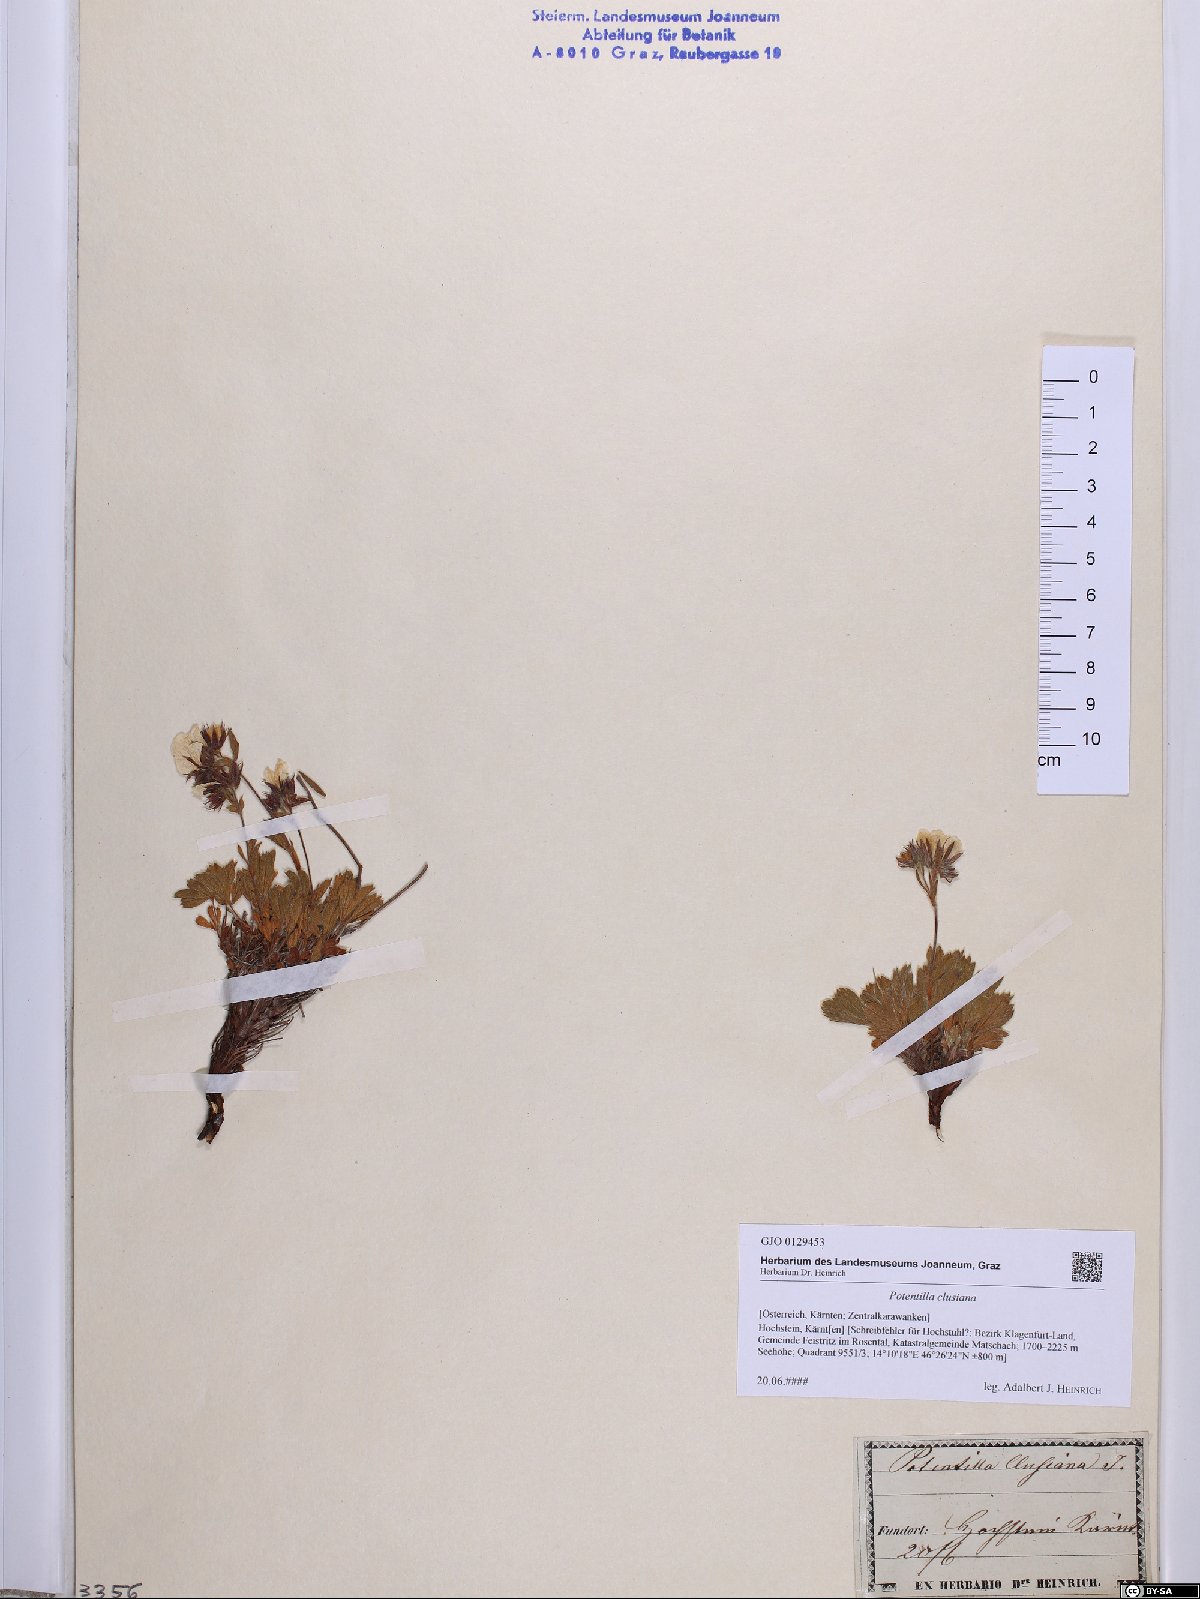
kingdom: Plantae
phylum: Tracheophyta
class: Magnoliopsida
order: Rosales
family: Rosaceae
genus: Potentilla
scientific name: Potentilla clusiana
